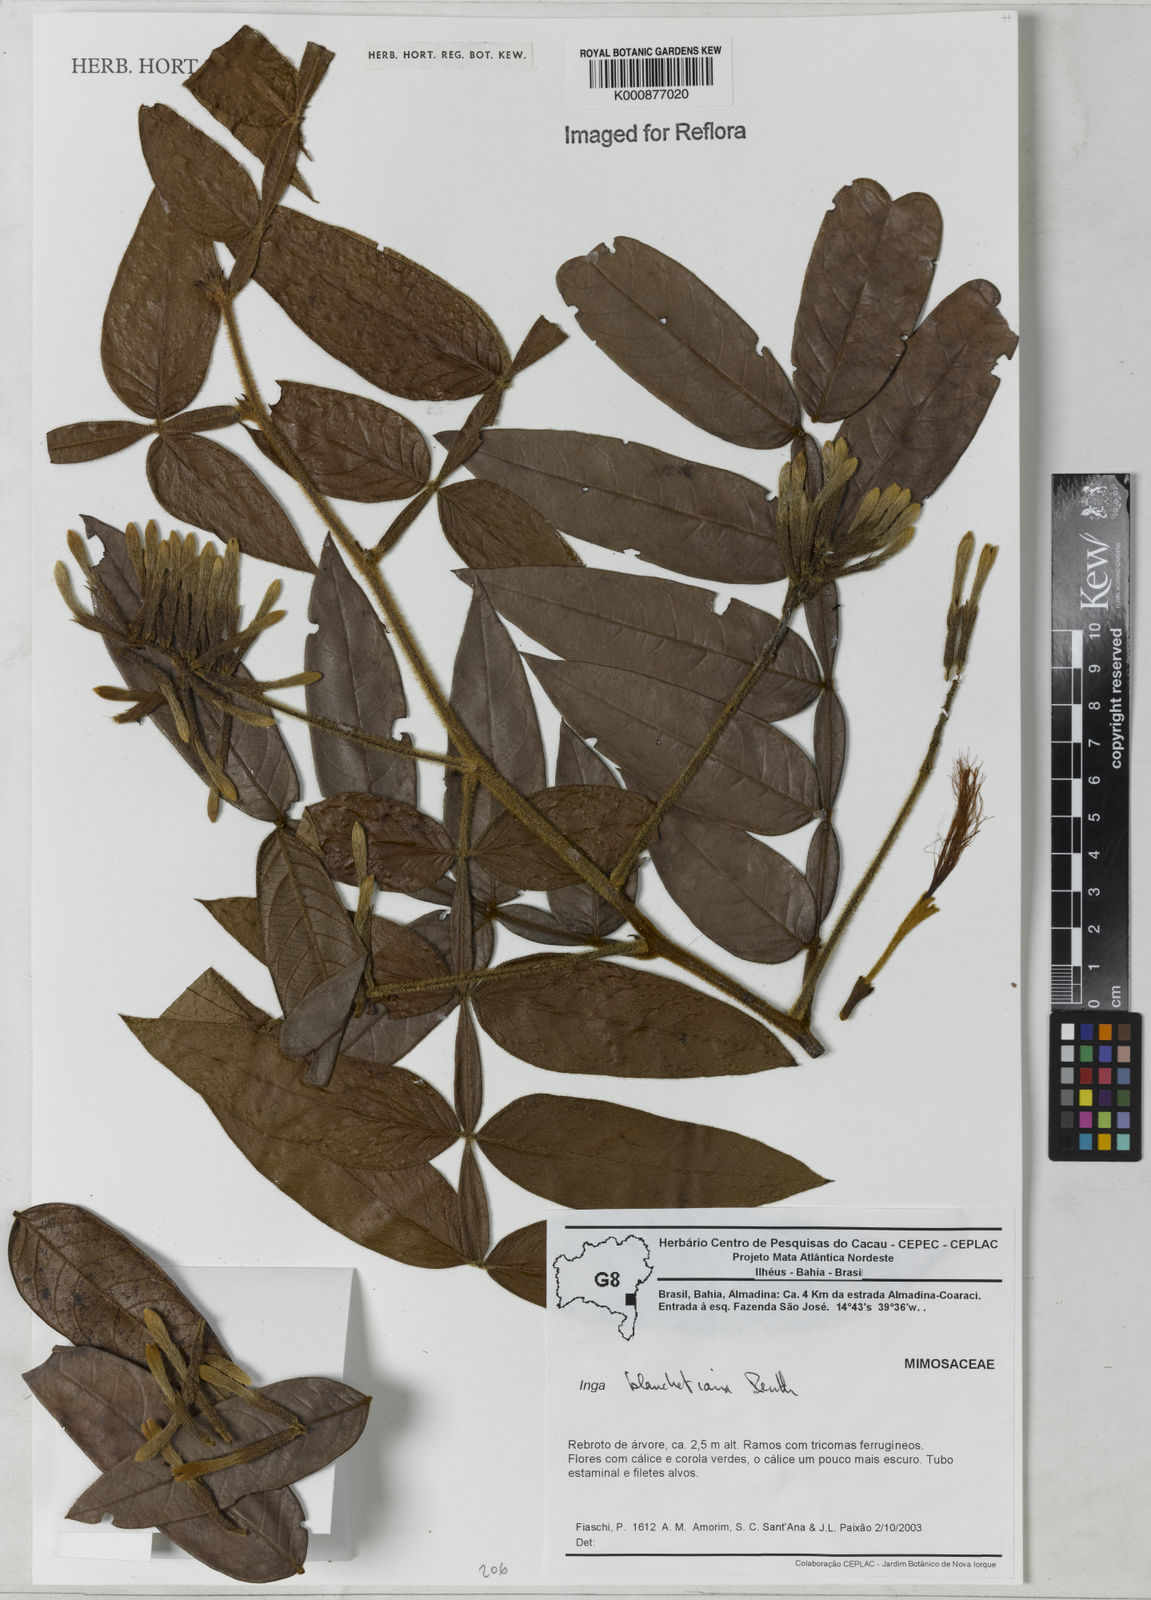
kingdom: Plantae
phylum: Tracheophyta
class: Magnoliopsida
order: Fabales
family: Fabaceae
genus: Inga
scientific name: Inga blanchetiana
